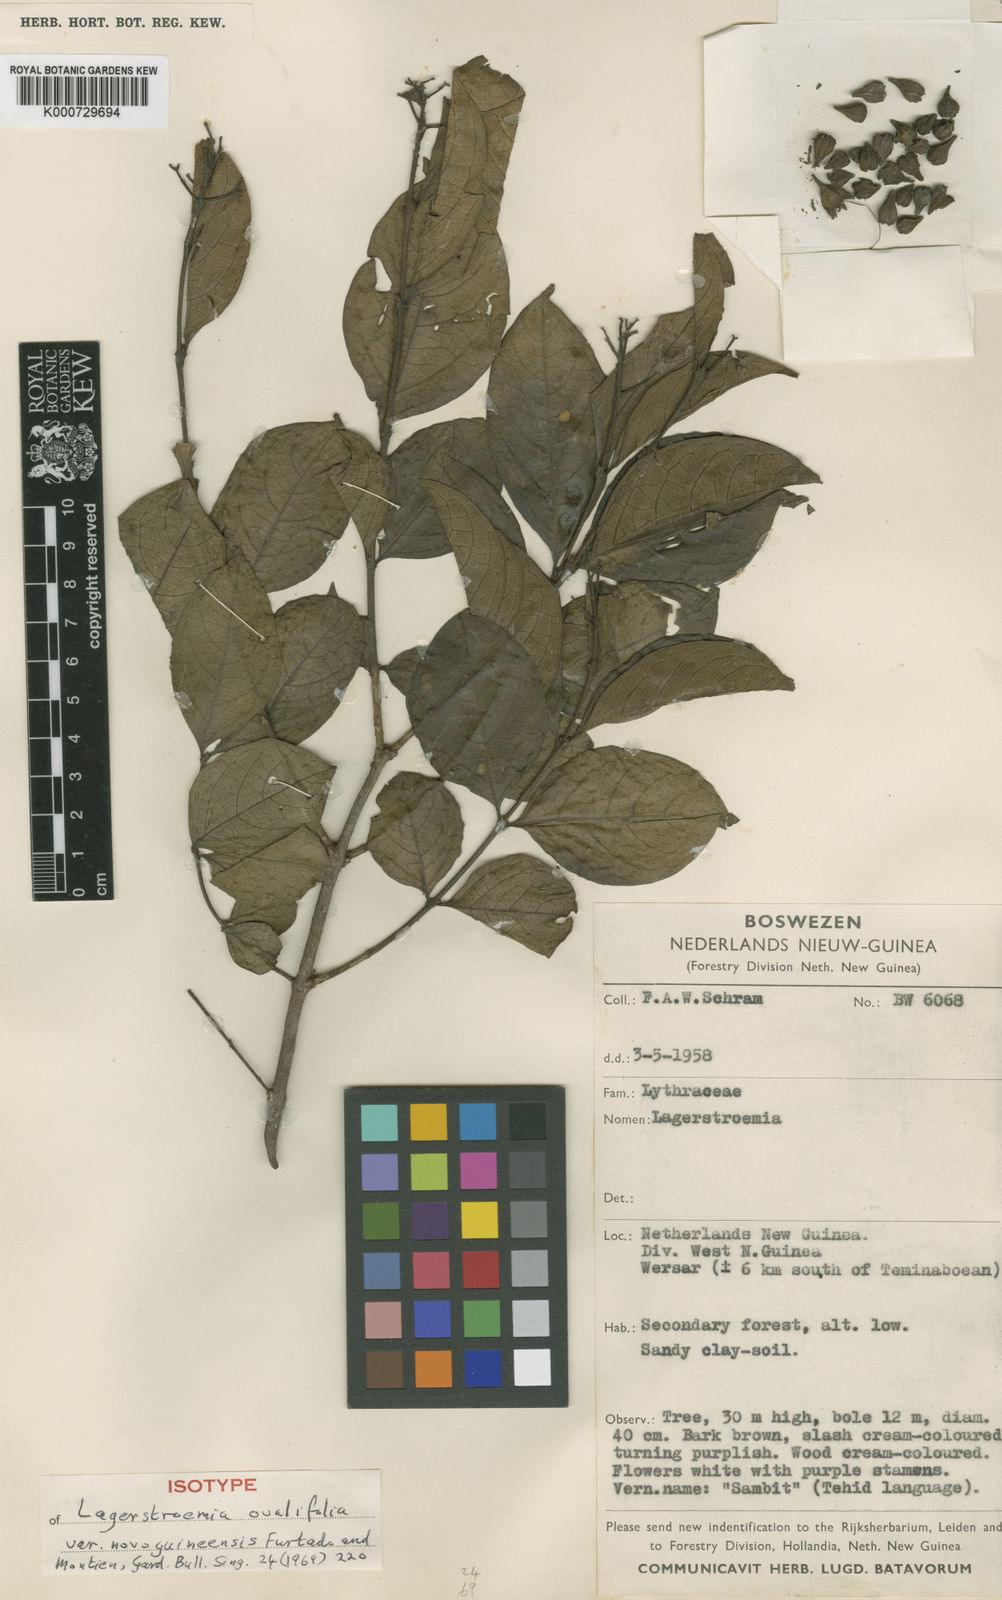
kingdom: Plantae
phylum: Tracheophyta
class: Magnoliopsida
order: Myrtales
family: Lythraceae
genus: Lagerstroemia
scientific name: Lagerstroemia ovalifolia
